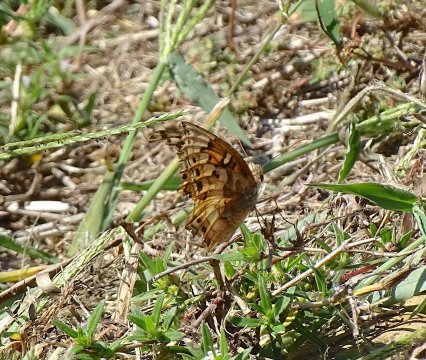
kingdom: Animalia
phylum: Arthropoda
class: Insecta
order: Lepidoptera
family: Nymphalidae
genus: Euptoieta
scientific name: Euptoieta claudia
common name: Variegated Fritillary
